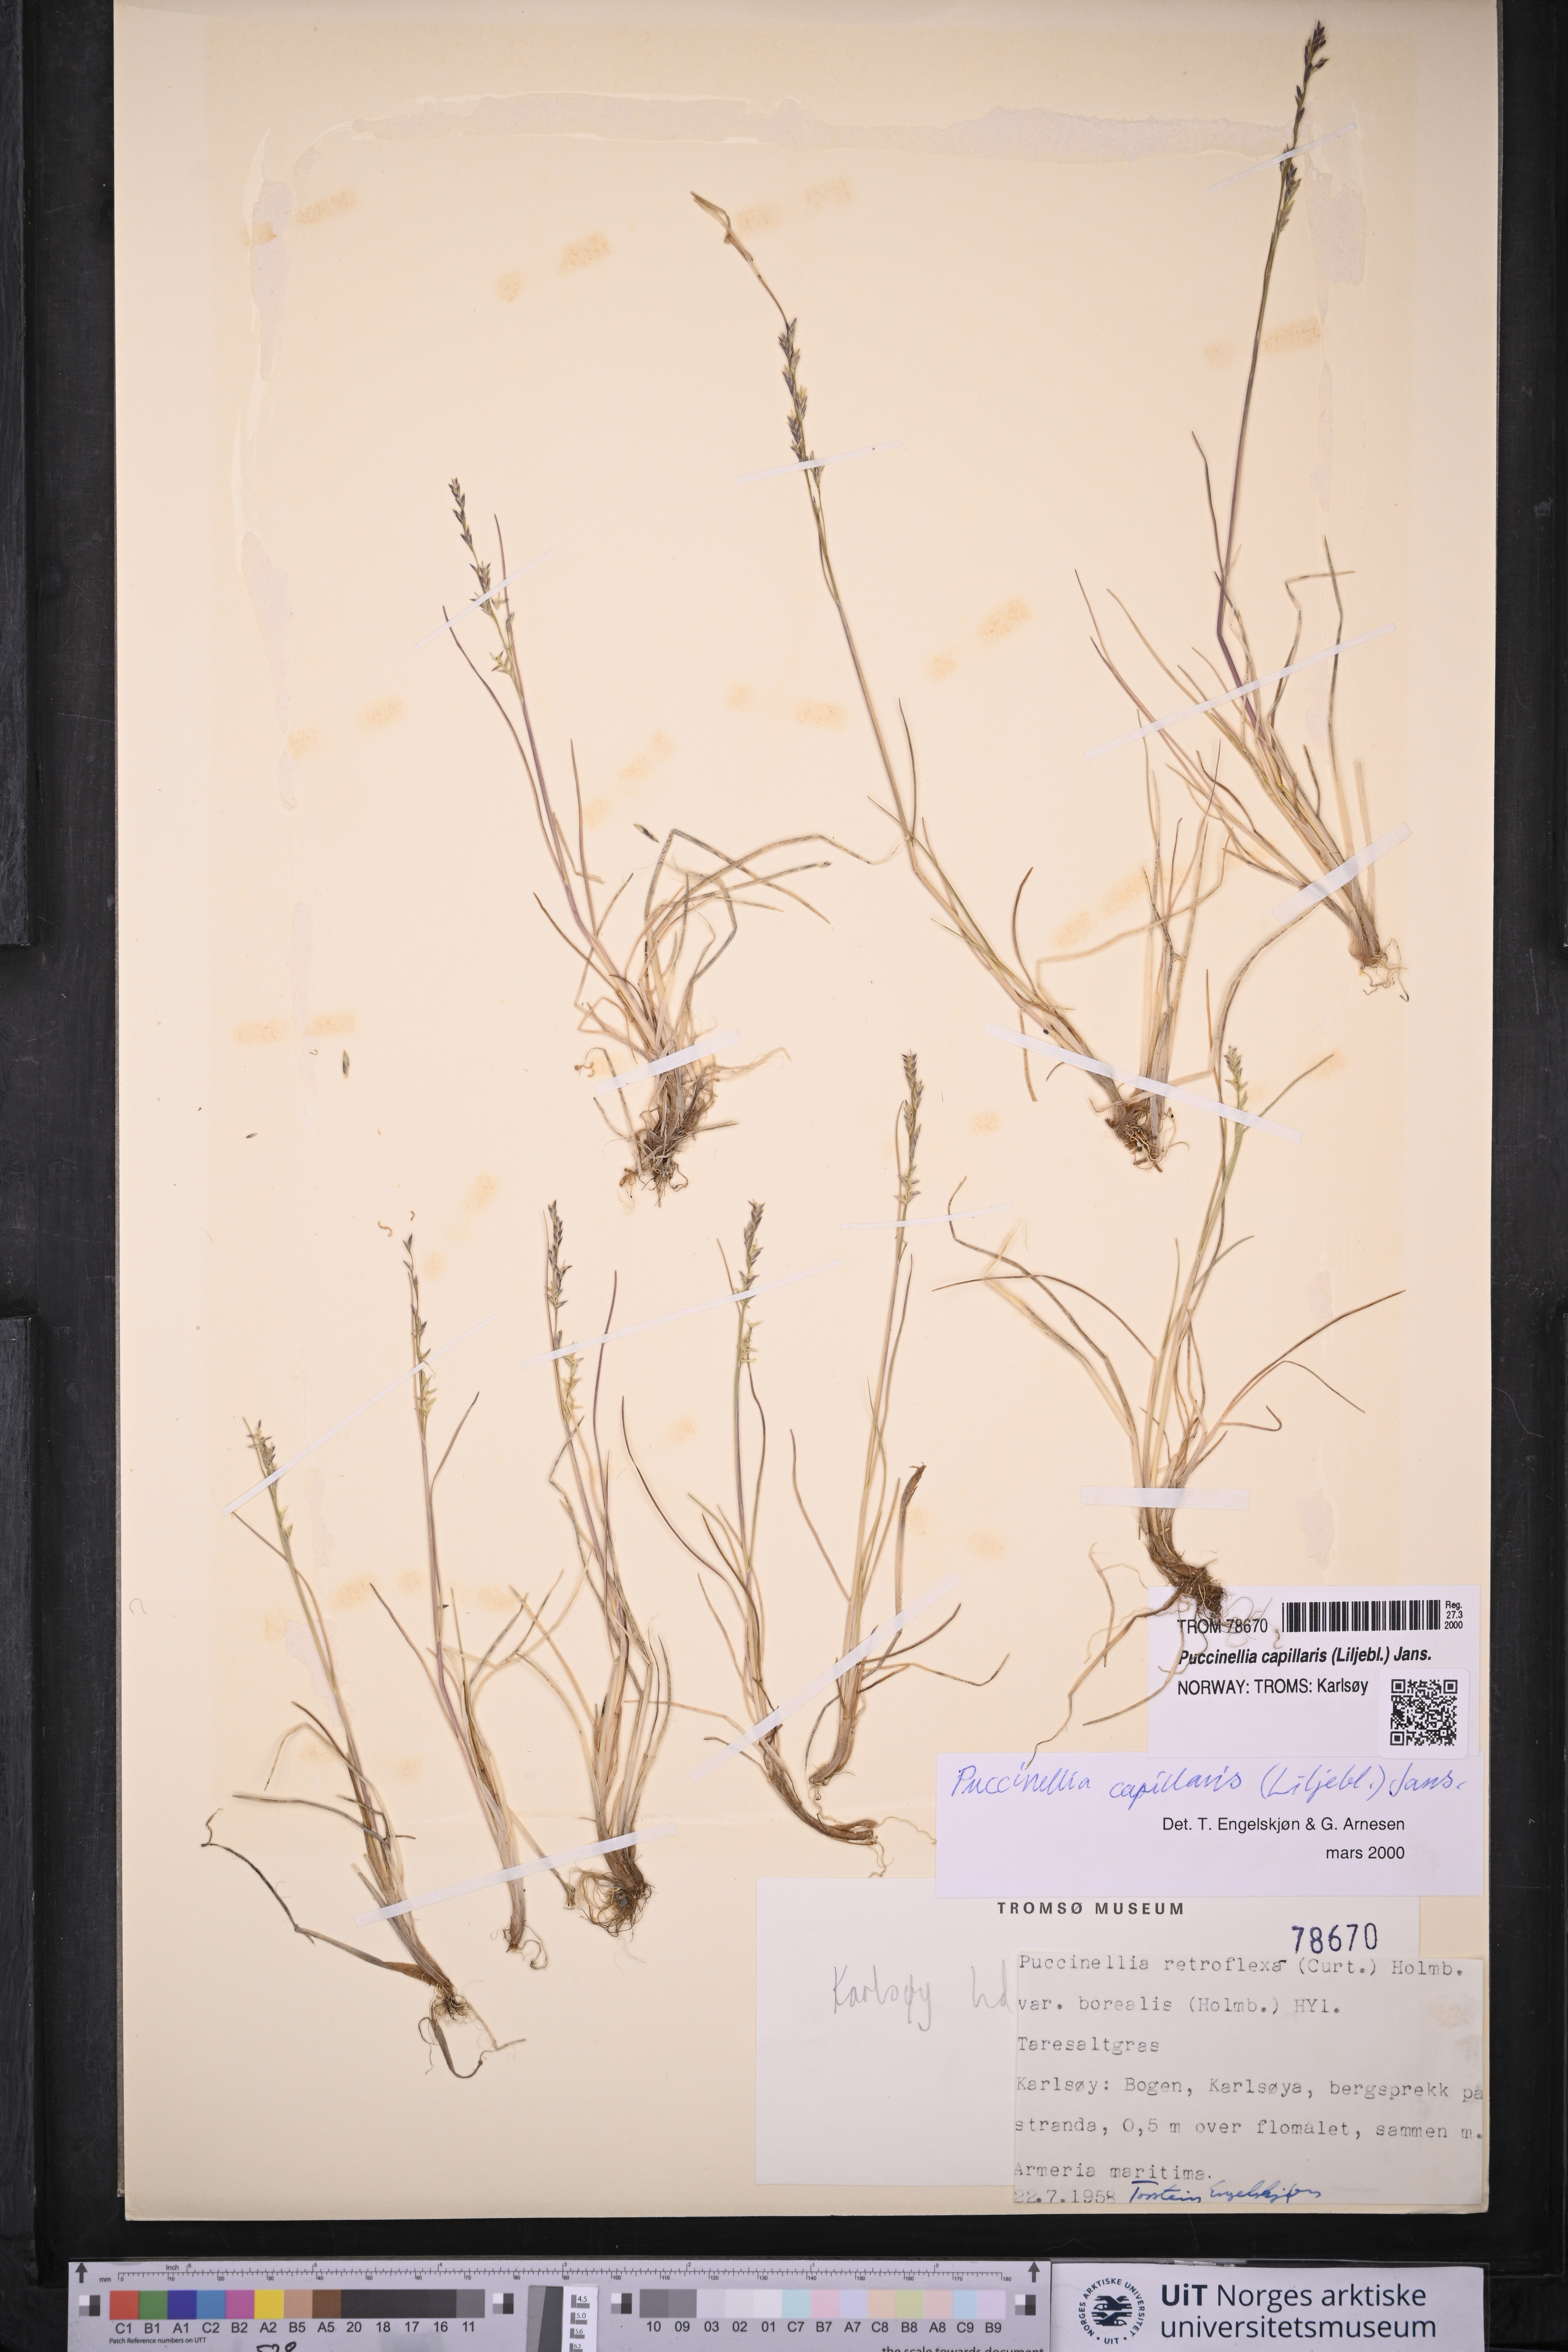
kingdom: Plantae
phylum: Tracheophyta
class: Liliopsida
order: Poales
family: Poaceae
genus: Puccinellia
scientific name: Puccinellia distans
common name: Weeping alkaligrass
